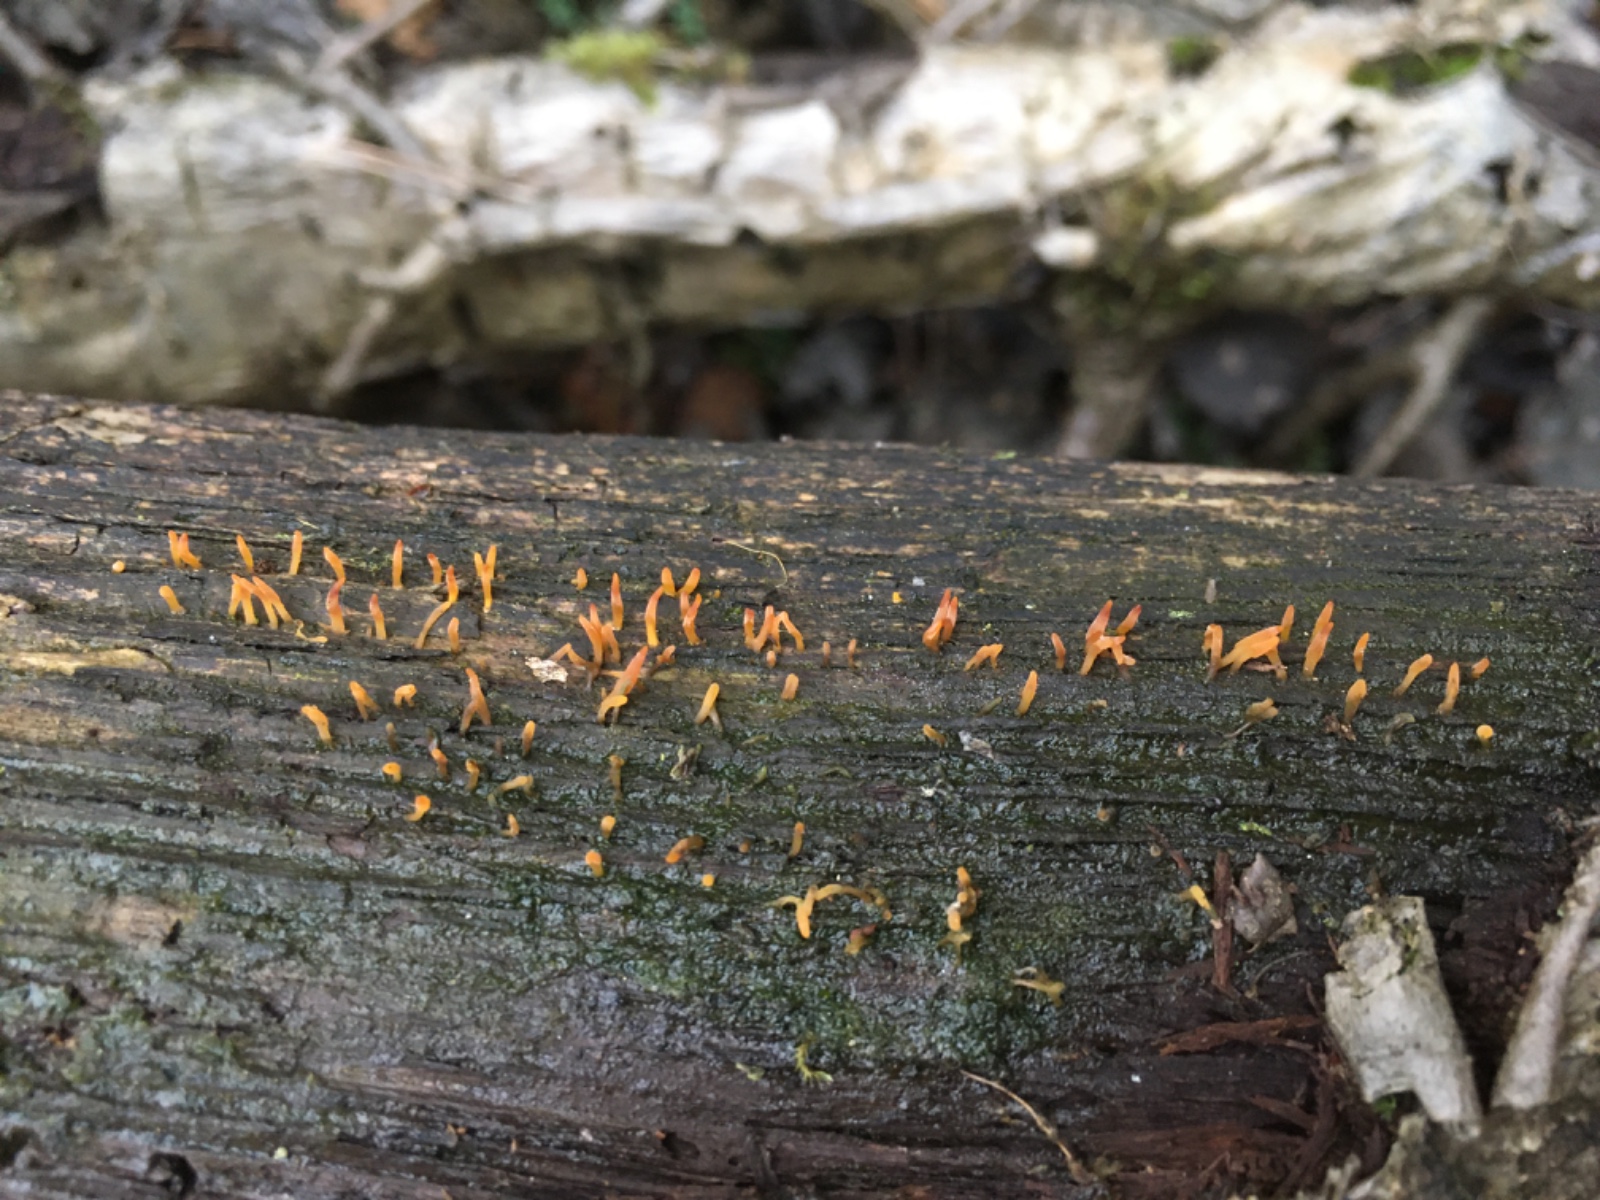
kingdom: Fungi
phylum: Basidiomycota
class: Dacrymycetes
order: Dacrymycetales
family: Dacrymycetaceae
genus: Calocera
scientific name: Calocera cornea
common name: liden guldgaffel
